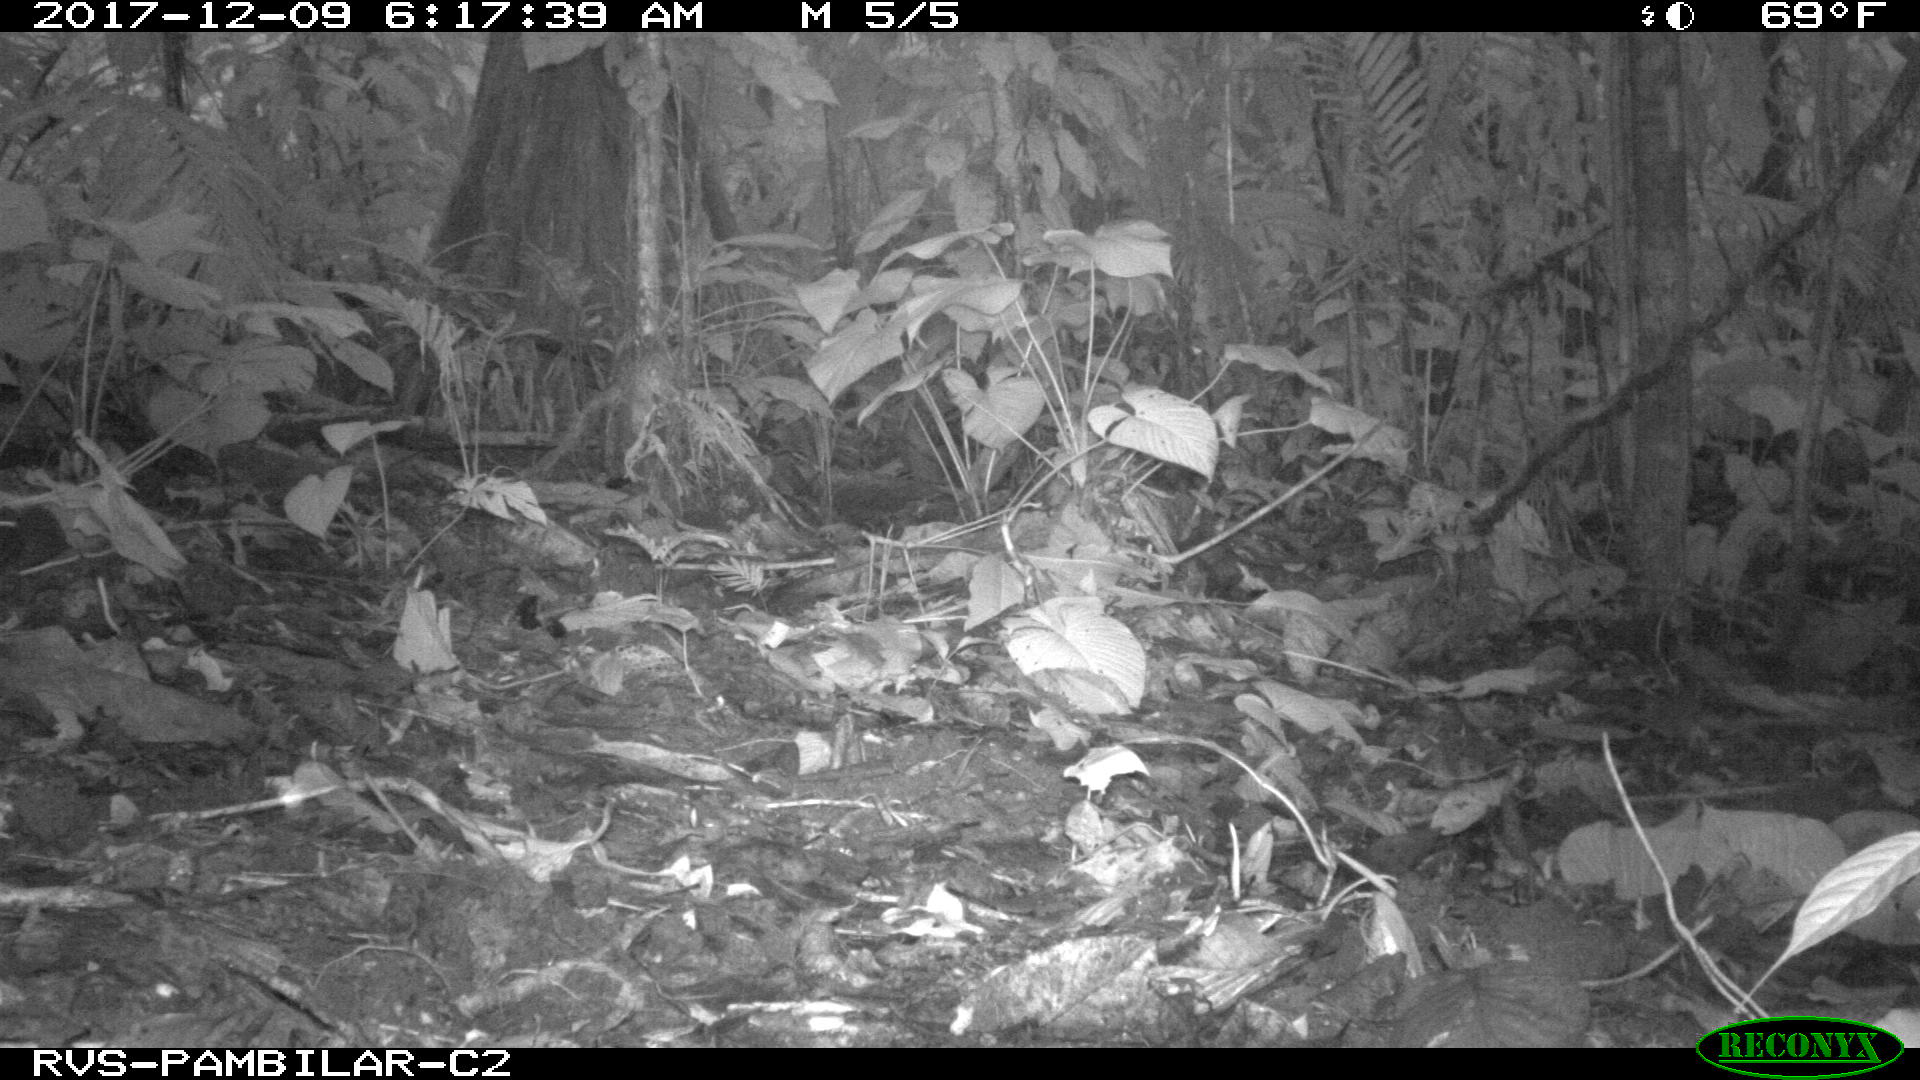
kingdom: Animalia
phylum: Chordata
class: Mammalia
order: Rodentia
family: Dasyproctidae
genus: Dasyprocta
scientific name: Dasyprocta punctata
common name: Central american agouti
